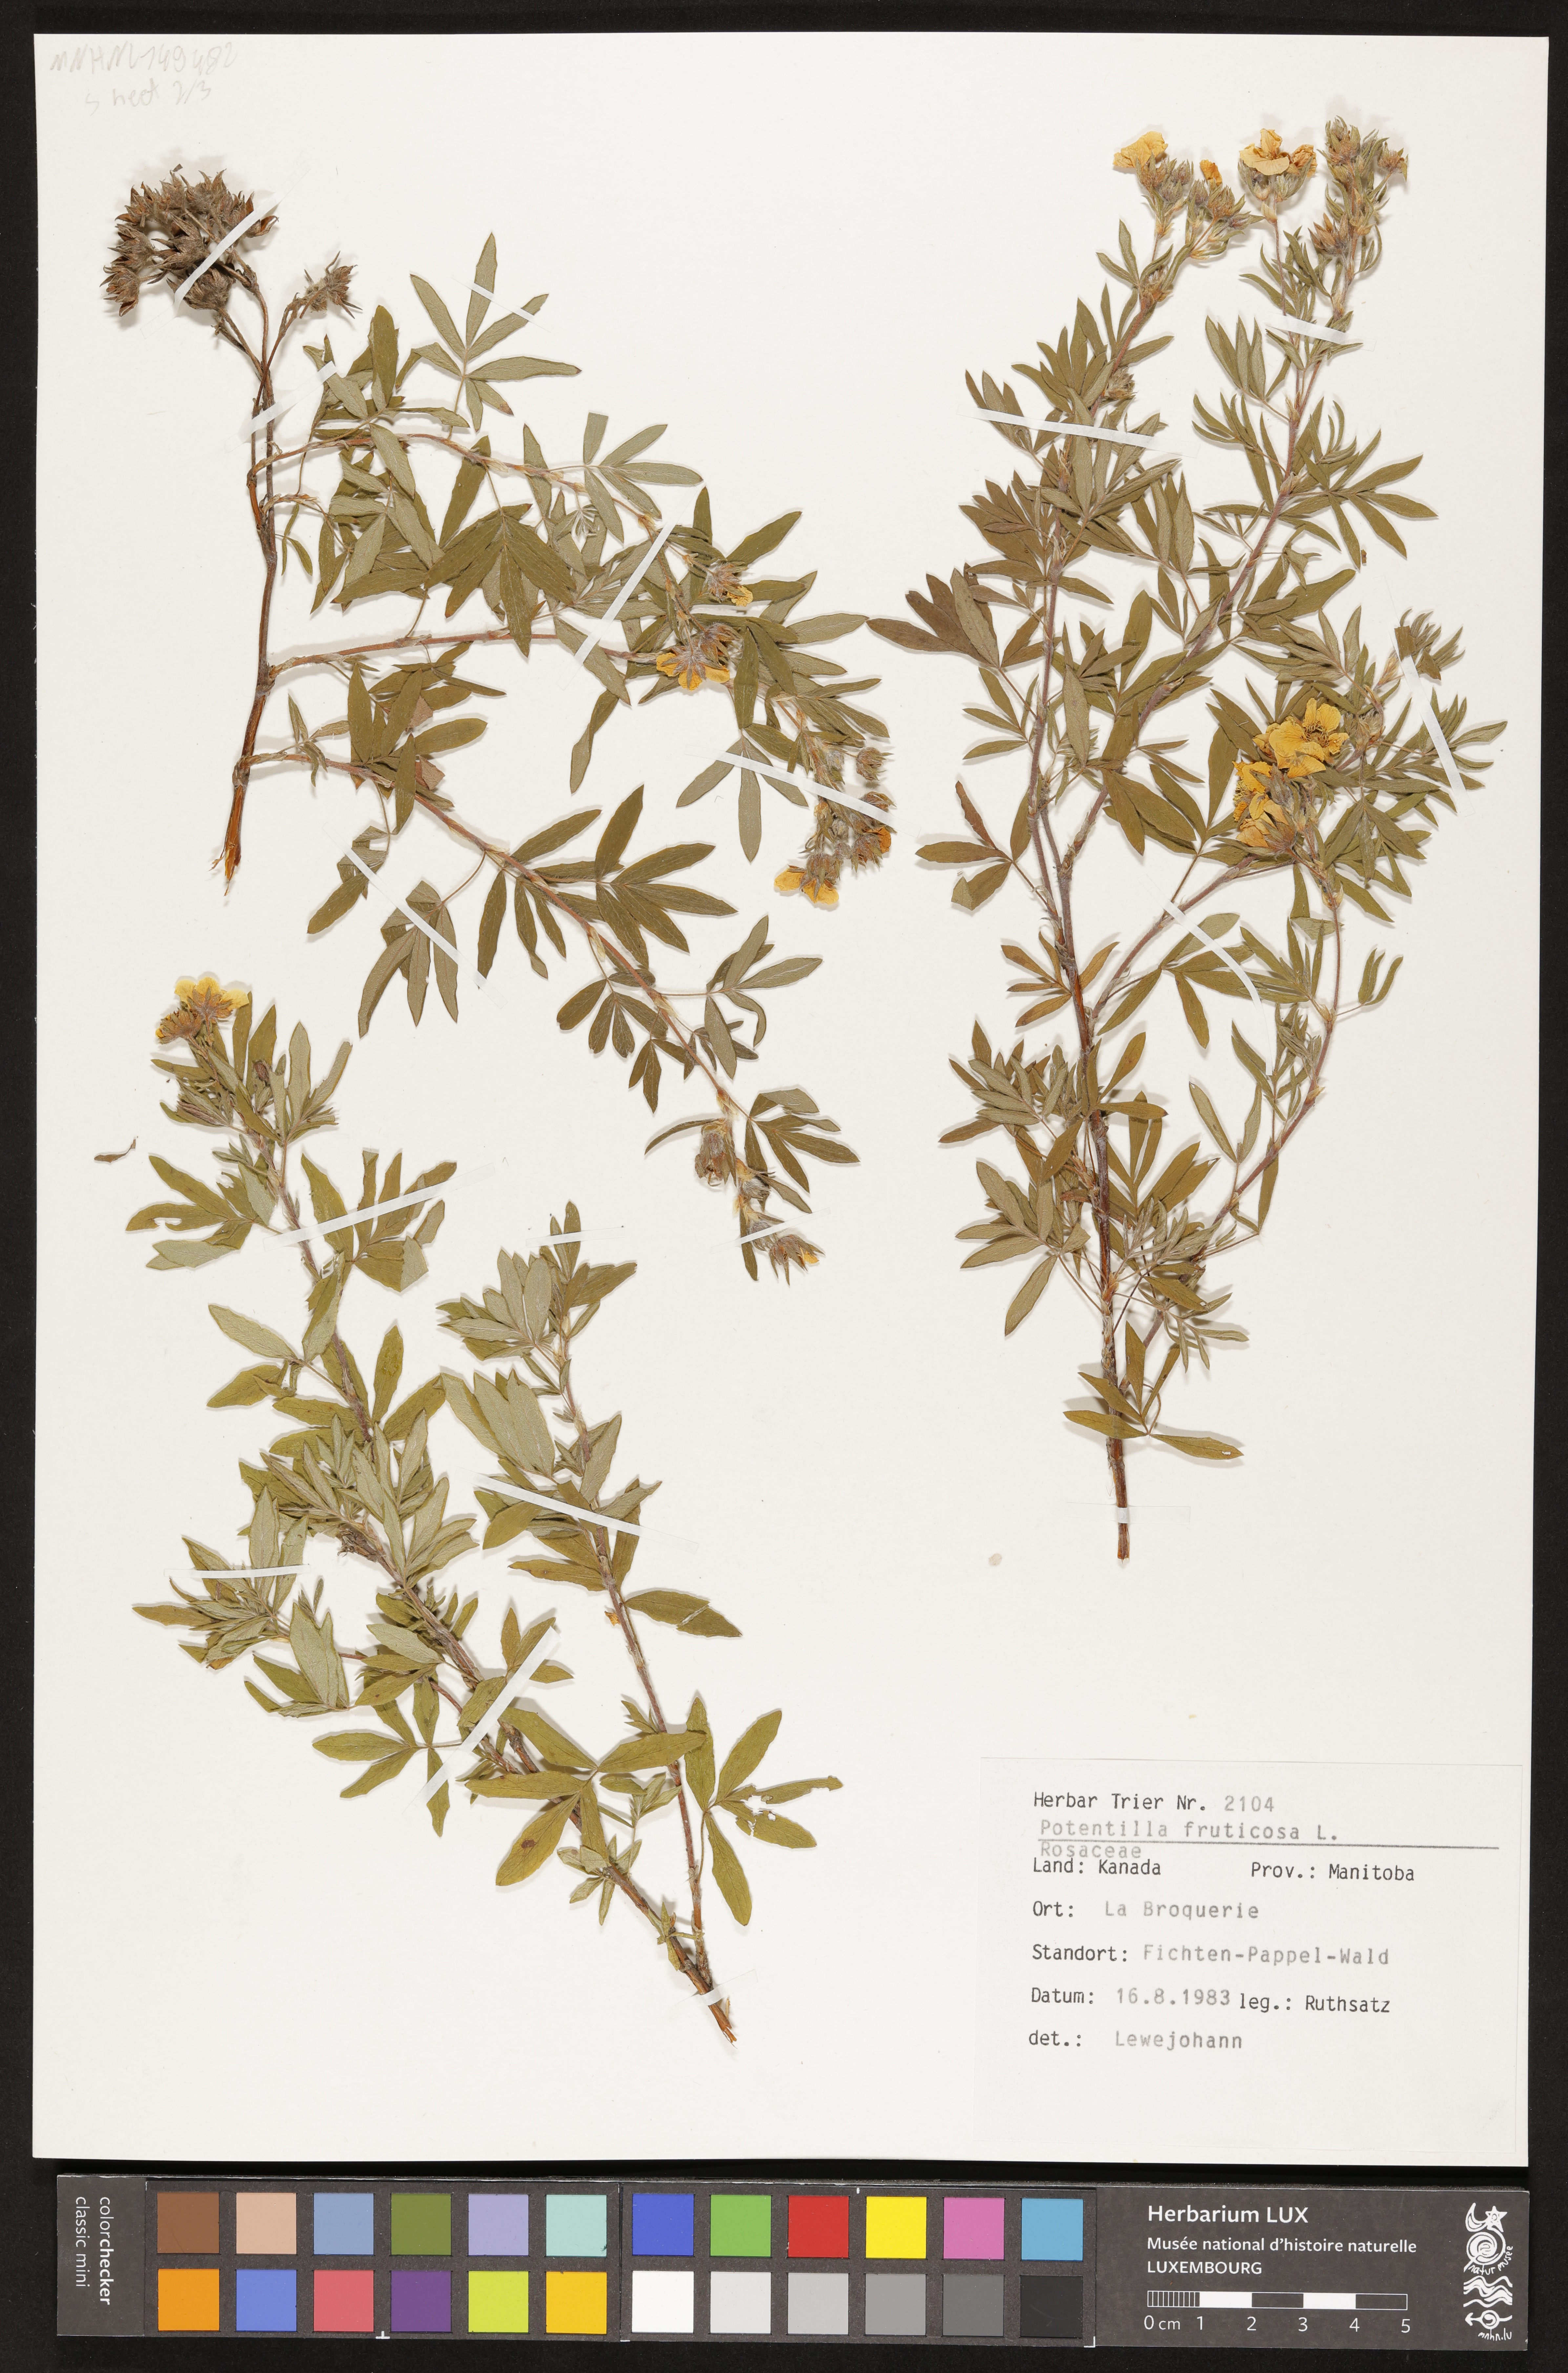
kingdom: Plantae
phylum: Tracheophyta
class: Magnoliopsida
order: Rosales
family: Rosaceae
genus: Dasiphora
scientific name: Dasiphora fruticosa
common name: Shrubby cinquefoil
